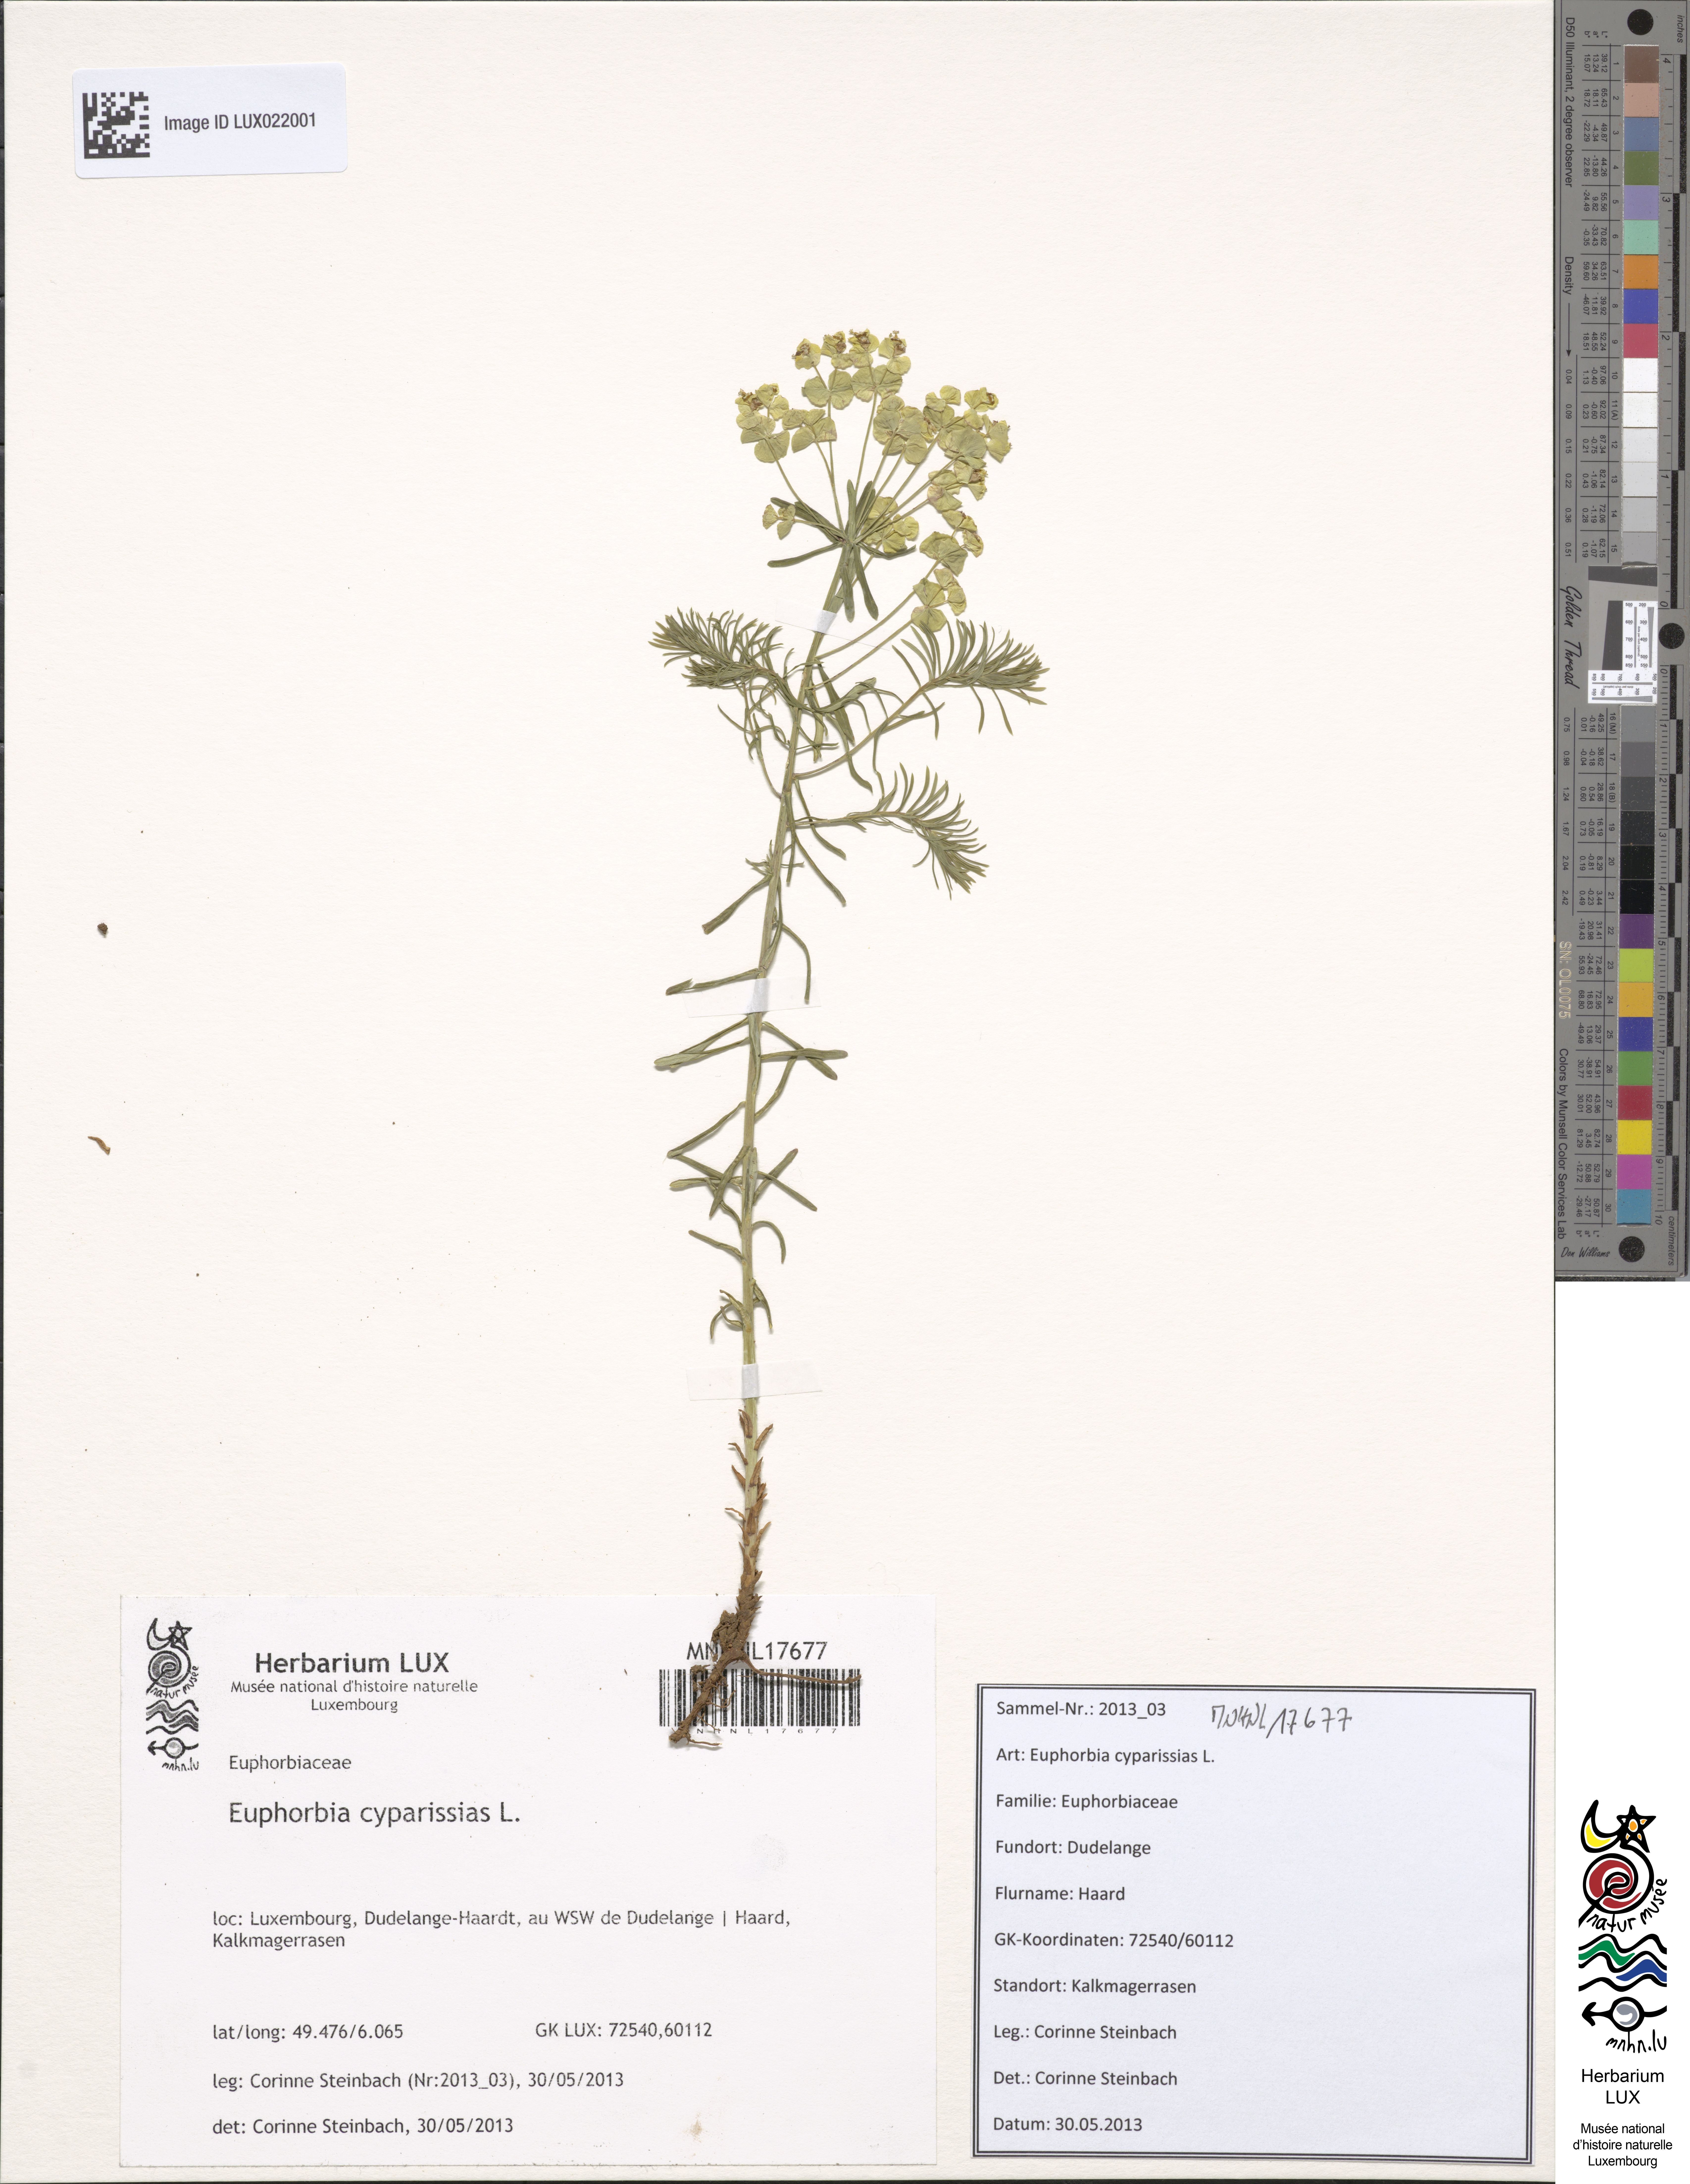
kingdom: Plantae
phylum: Tracheophyta
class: Magnoliopsida
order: Malpighiales
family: Euphorbiaceae
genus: Euphorbia
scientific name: Euphorbia cyparissias
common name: Cypress spurge
